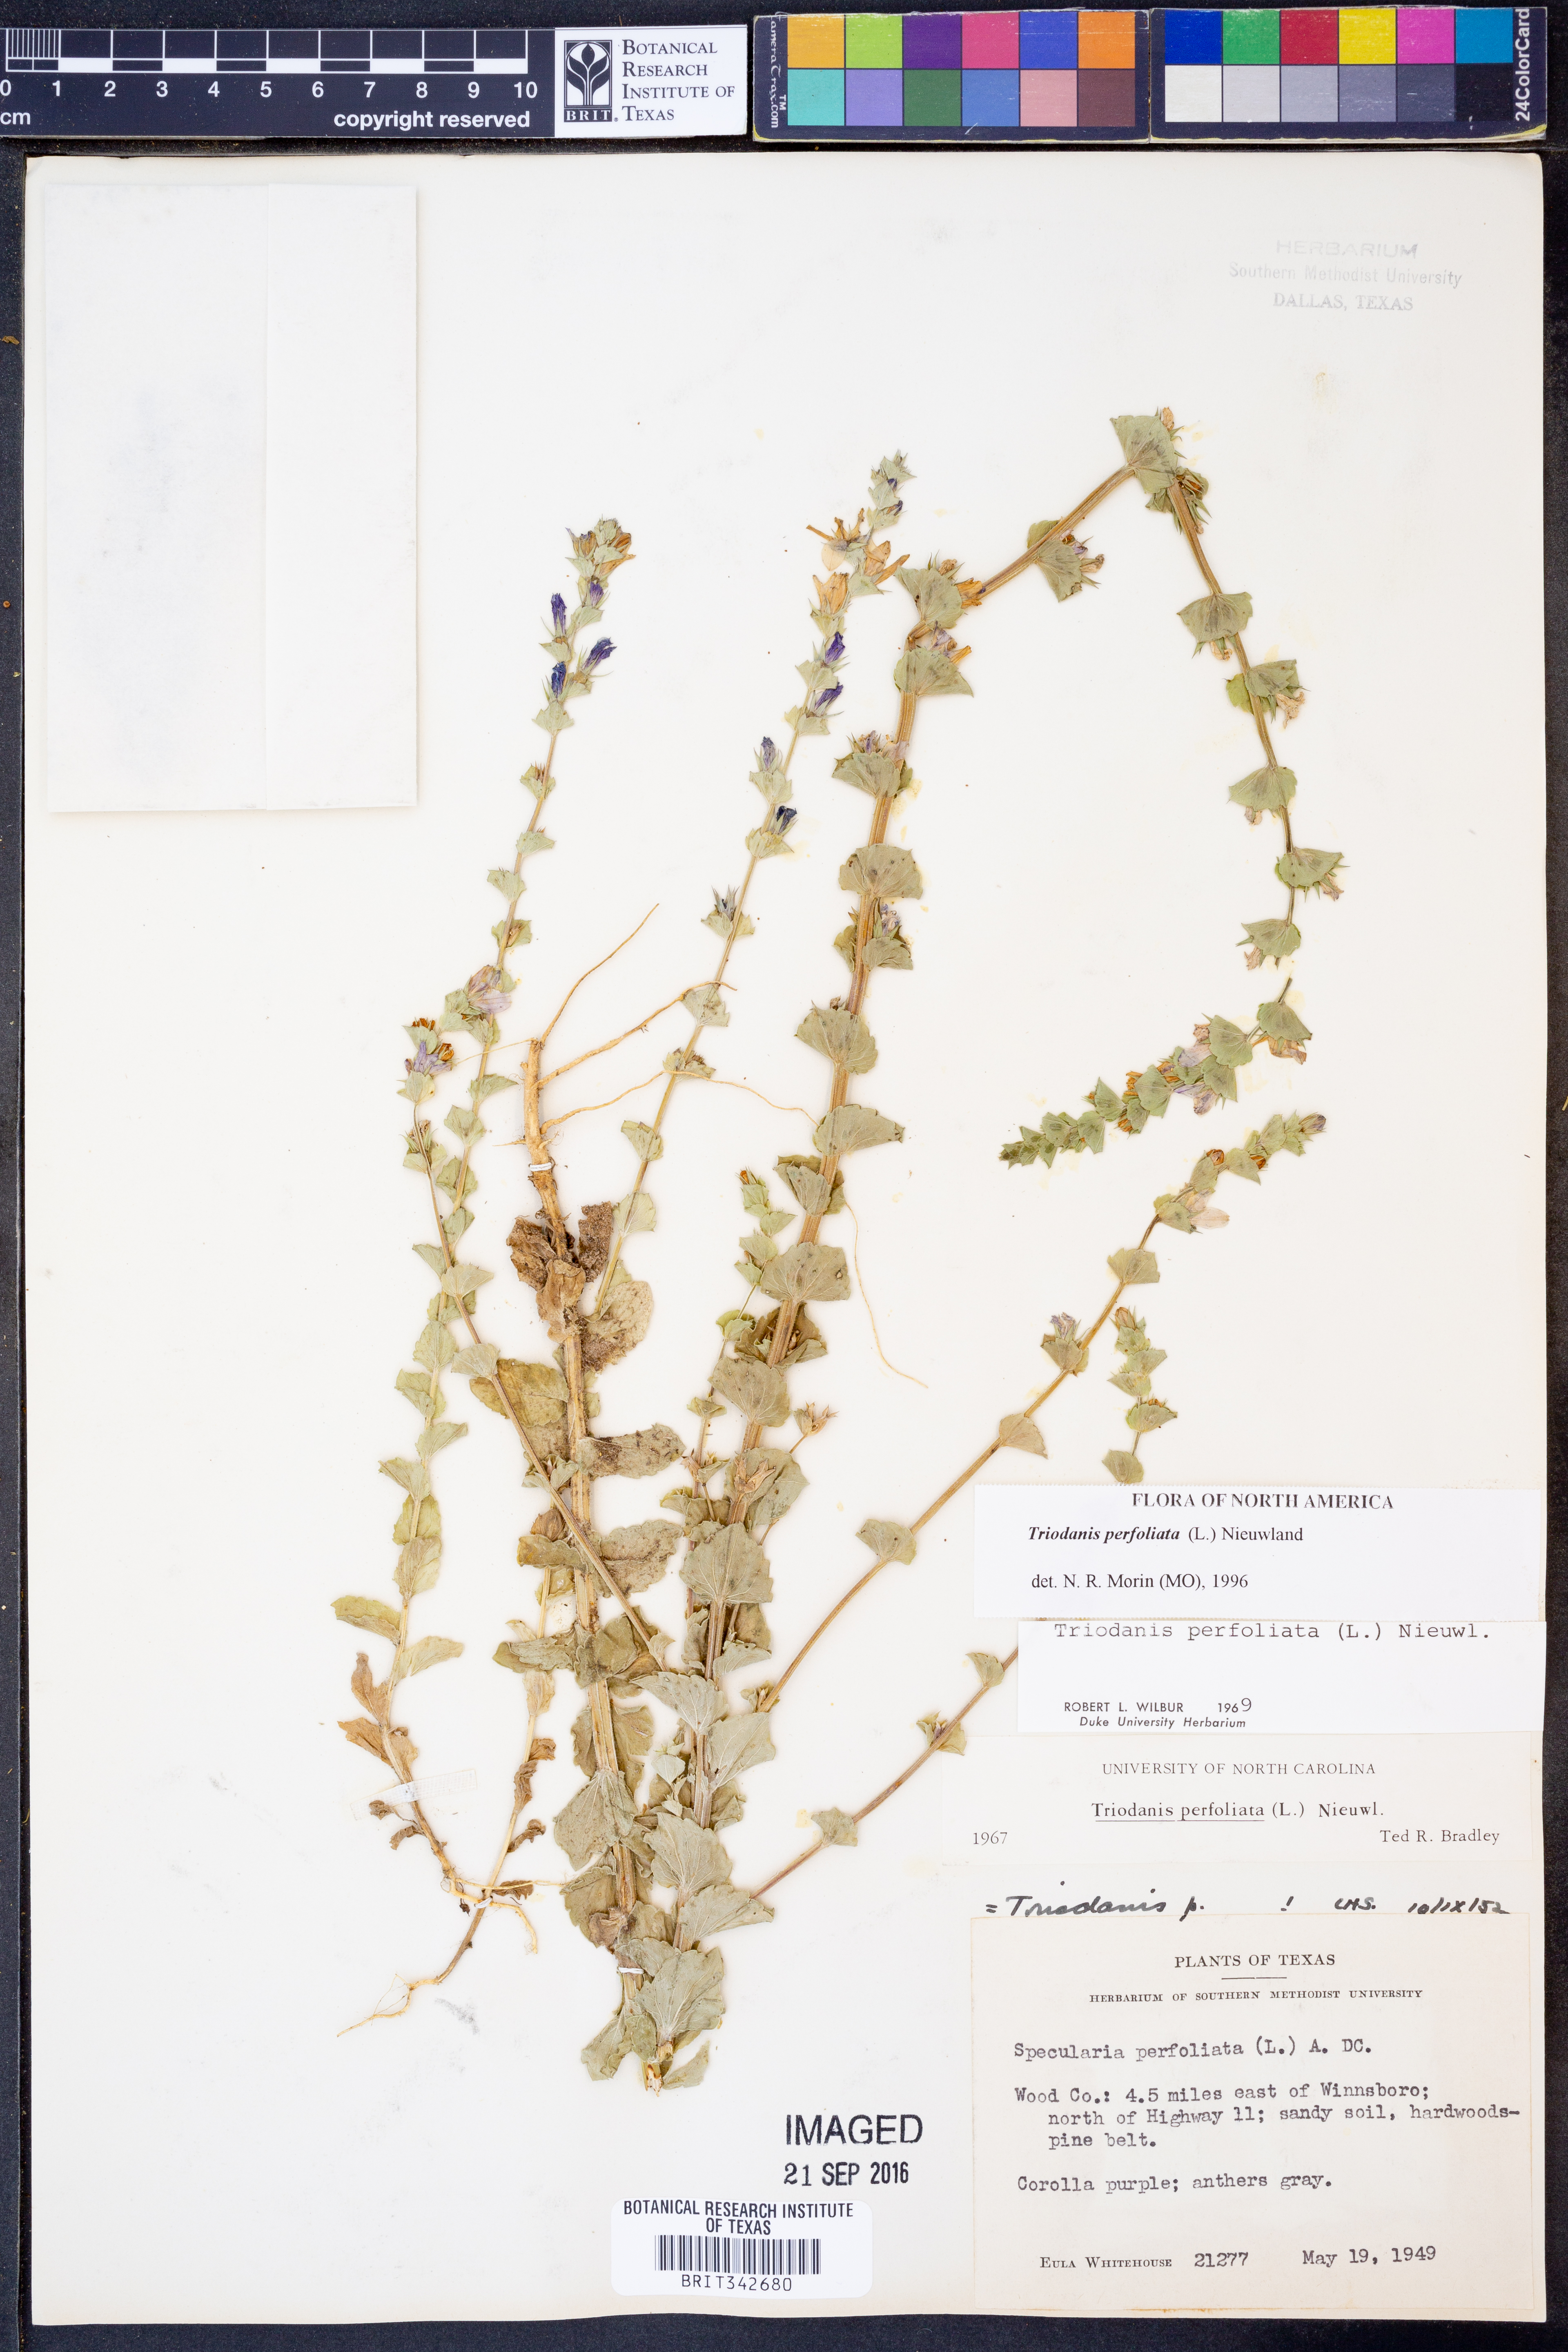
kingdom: Plantae
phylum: Tracheophyta
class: Magnoliopsida
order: Asterales
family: Campanulaceae
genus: Triodanis
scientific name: Triodanis perfoliata
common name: Clasping venus' looking-glass
